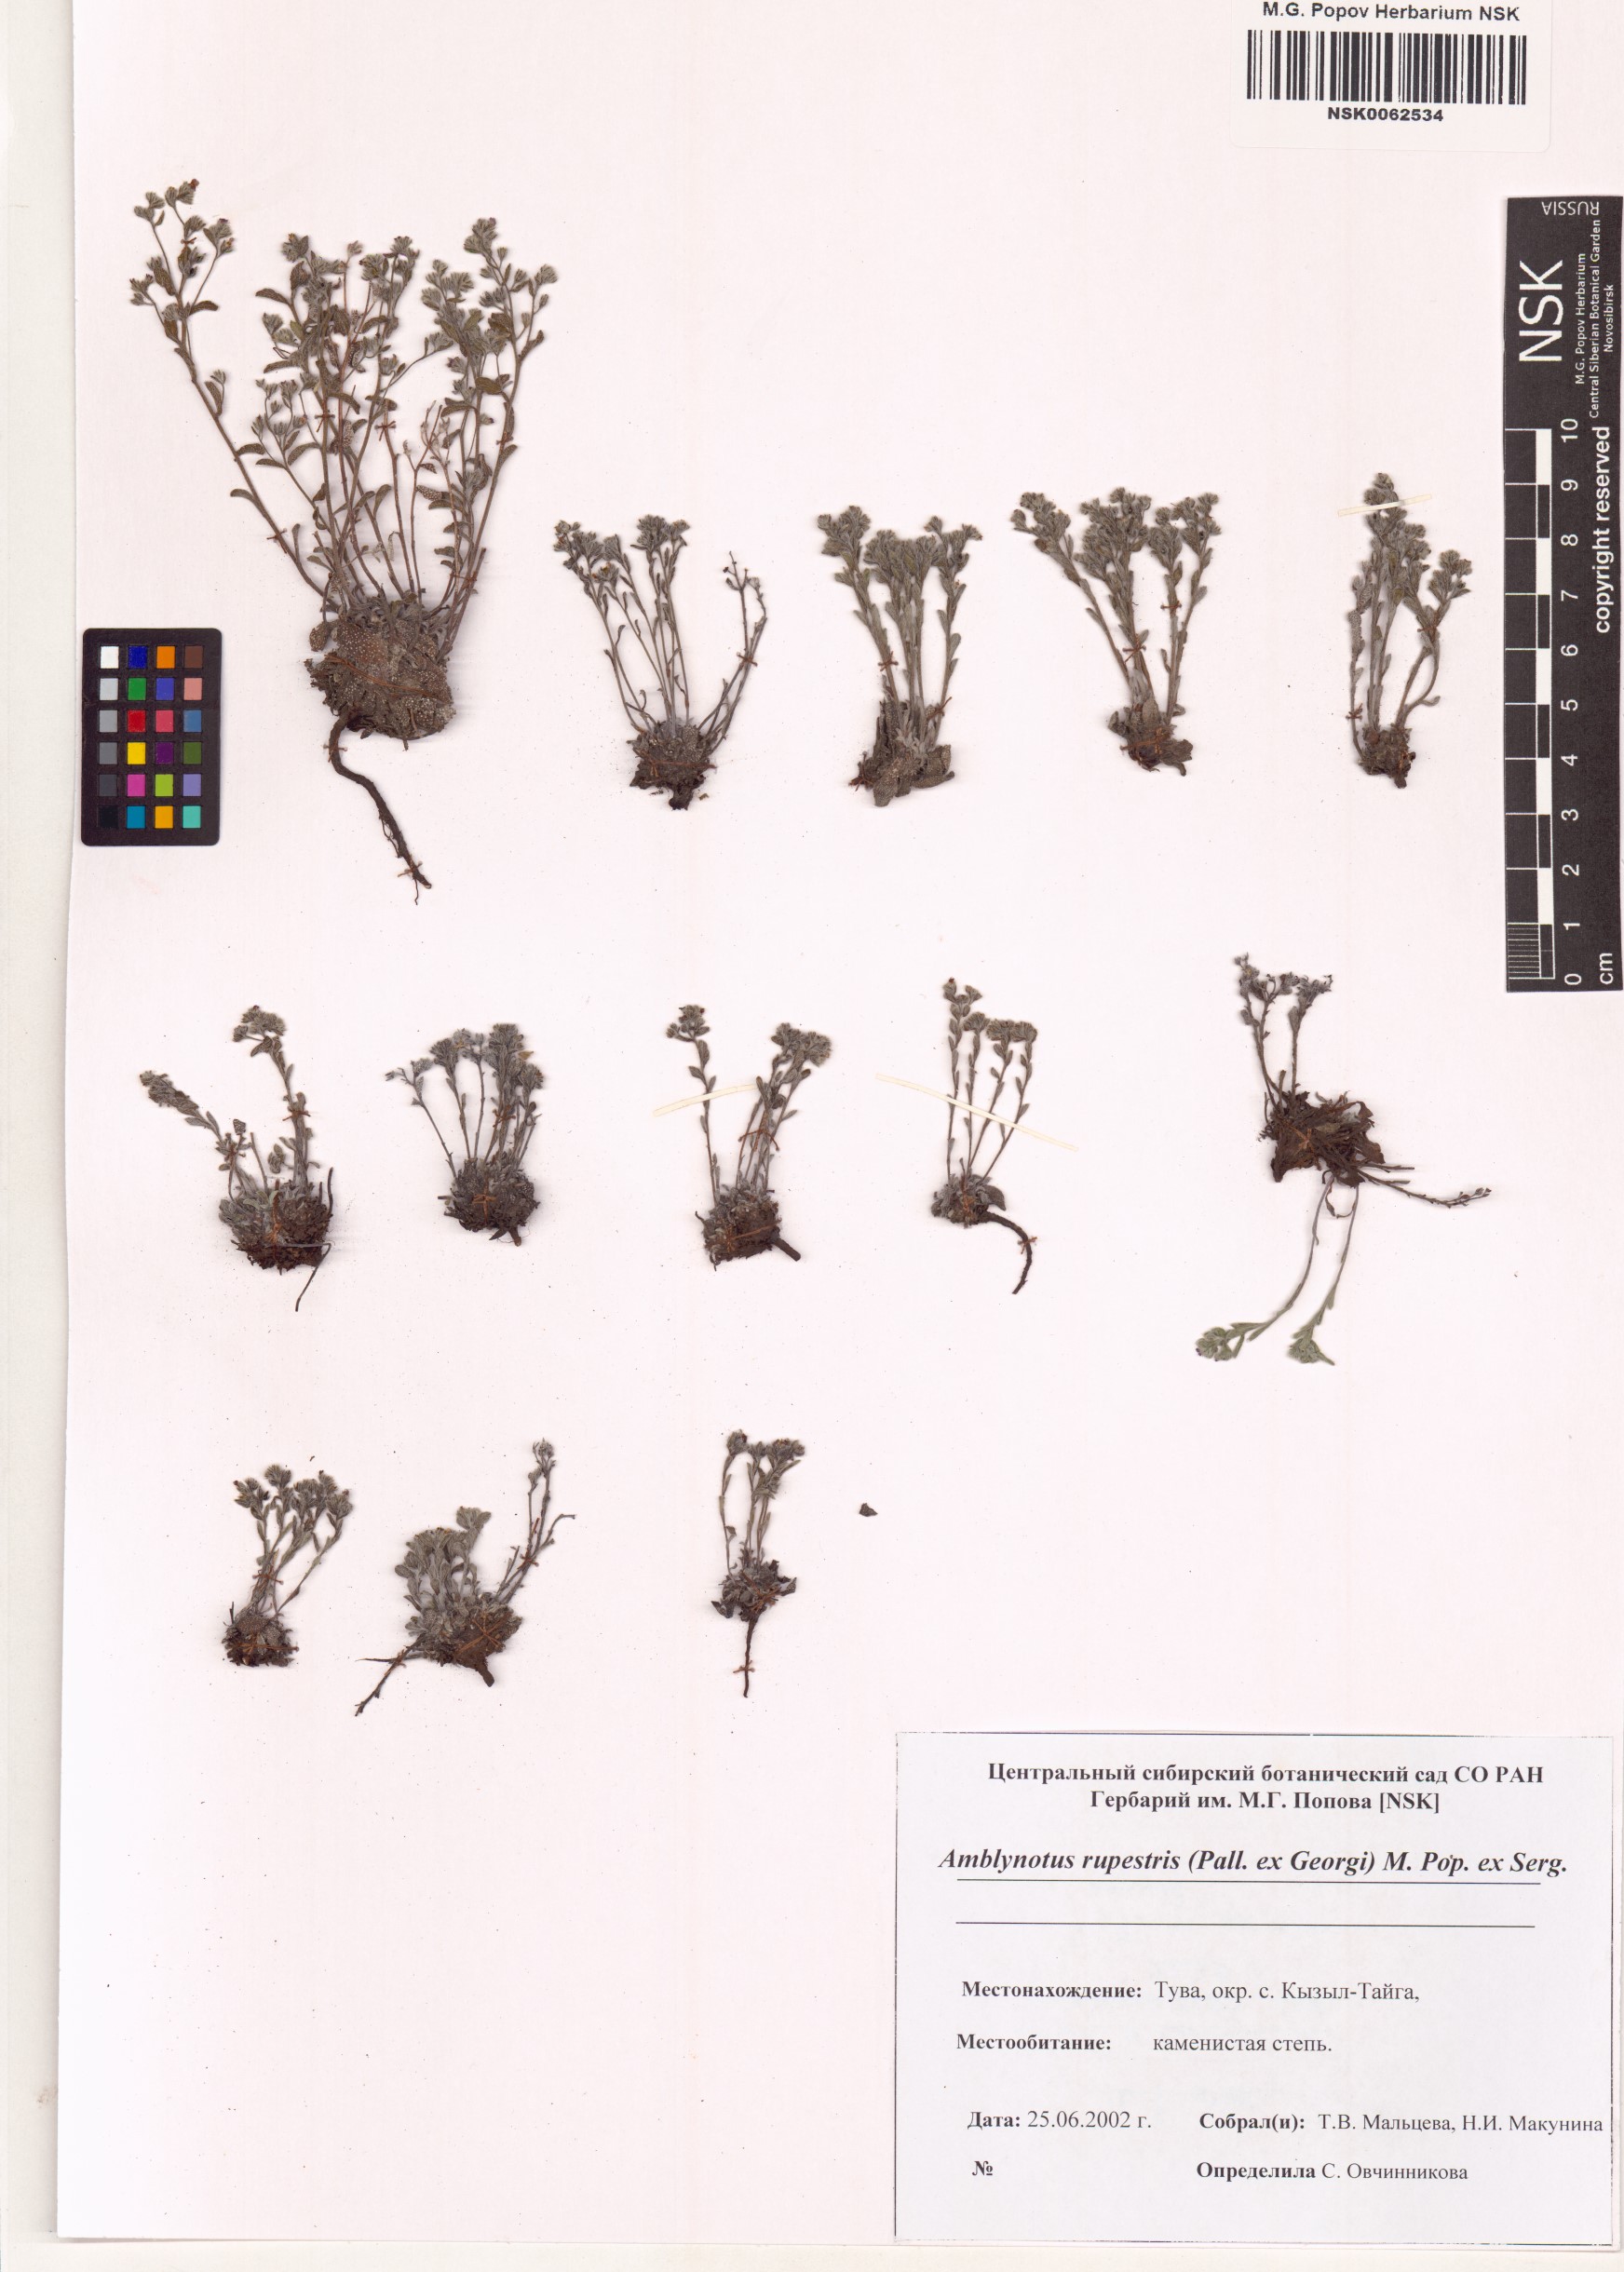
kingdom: Plantae
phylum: Tracheophyta
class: Magnoliopsida
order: Boraginales
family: Boraginaceae
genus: Eritrichium
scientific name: Eritrichium rupestre
